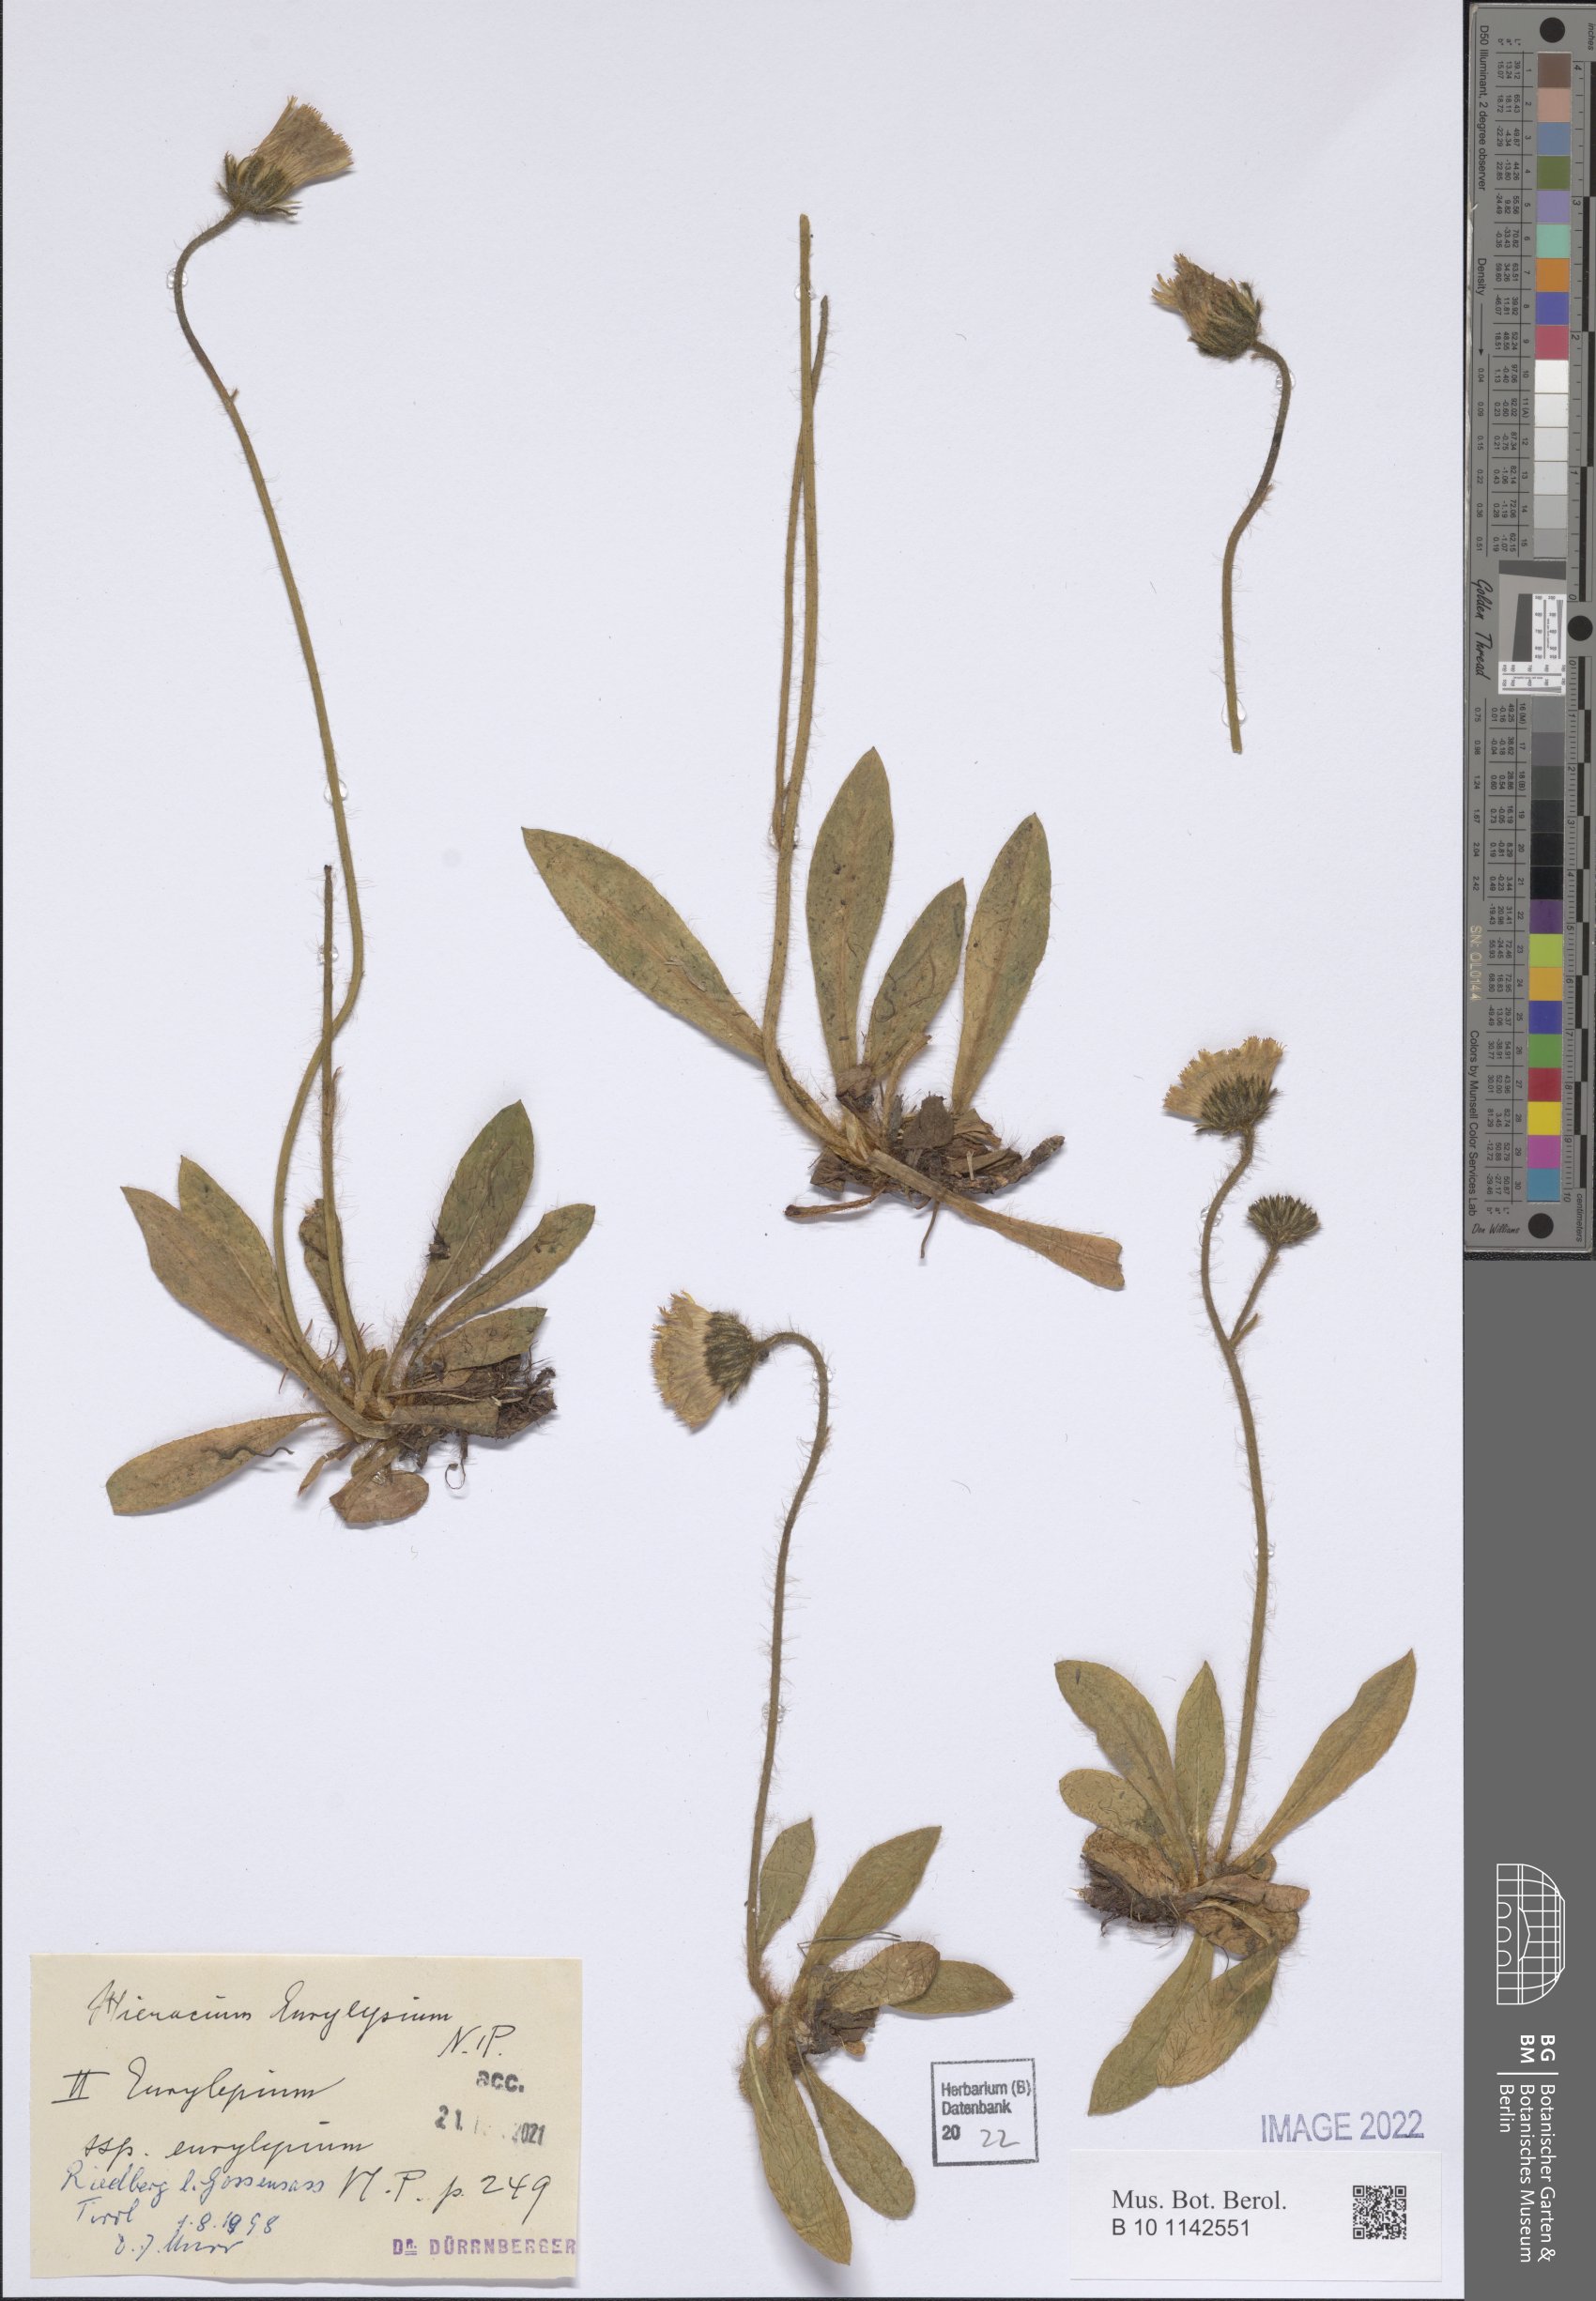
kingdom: Plantae
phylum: Tracheophyta
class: Magnoliopsida
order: Asterales
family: Asteraceae
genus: Pilosella
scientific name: Pilosella pachypila
